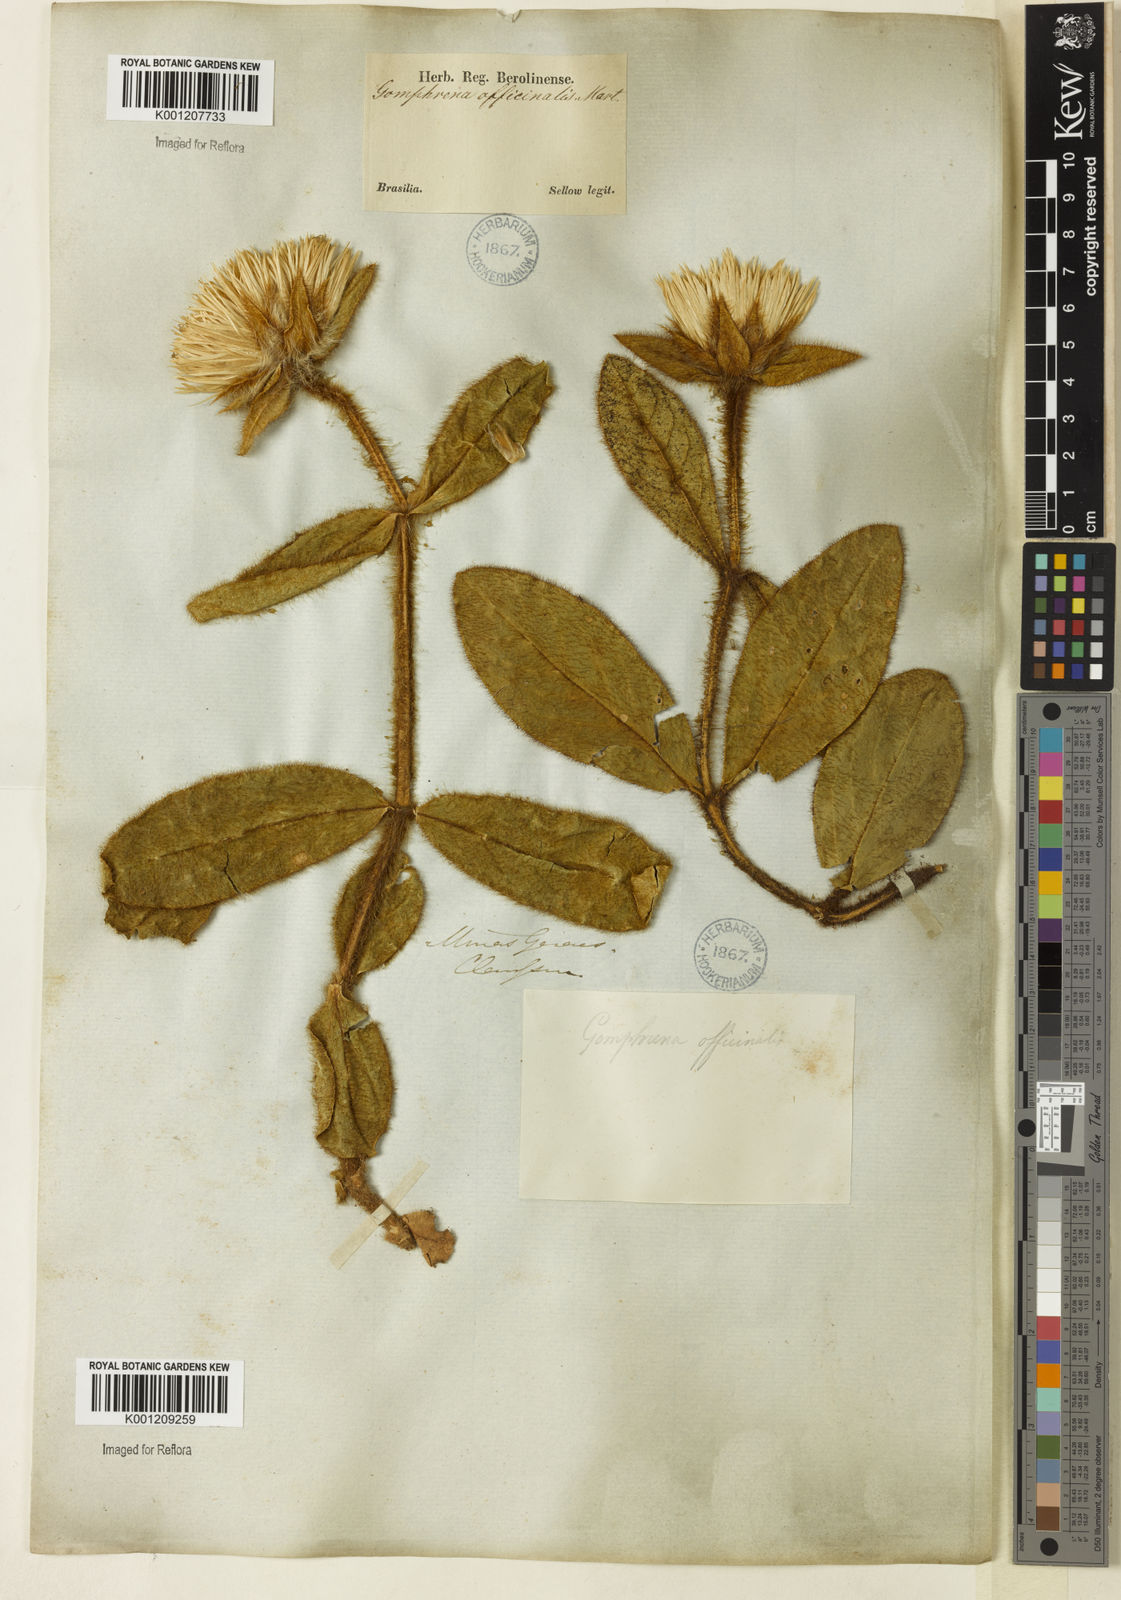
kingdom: Plantae
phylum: Tracheophyta
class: Magnoliopsida
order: Caryophyllales
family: Amaranthaceae
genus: Gomphrena
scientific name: Gomphrena arborescens
